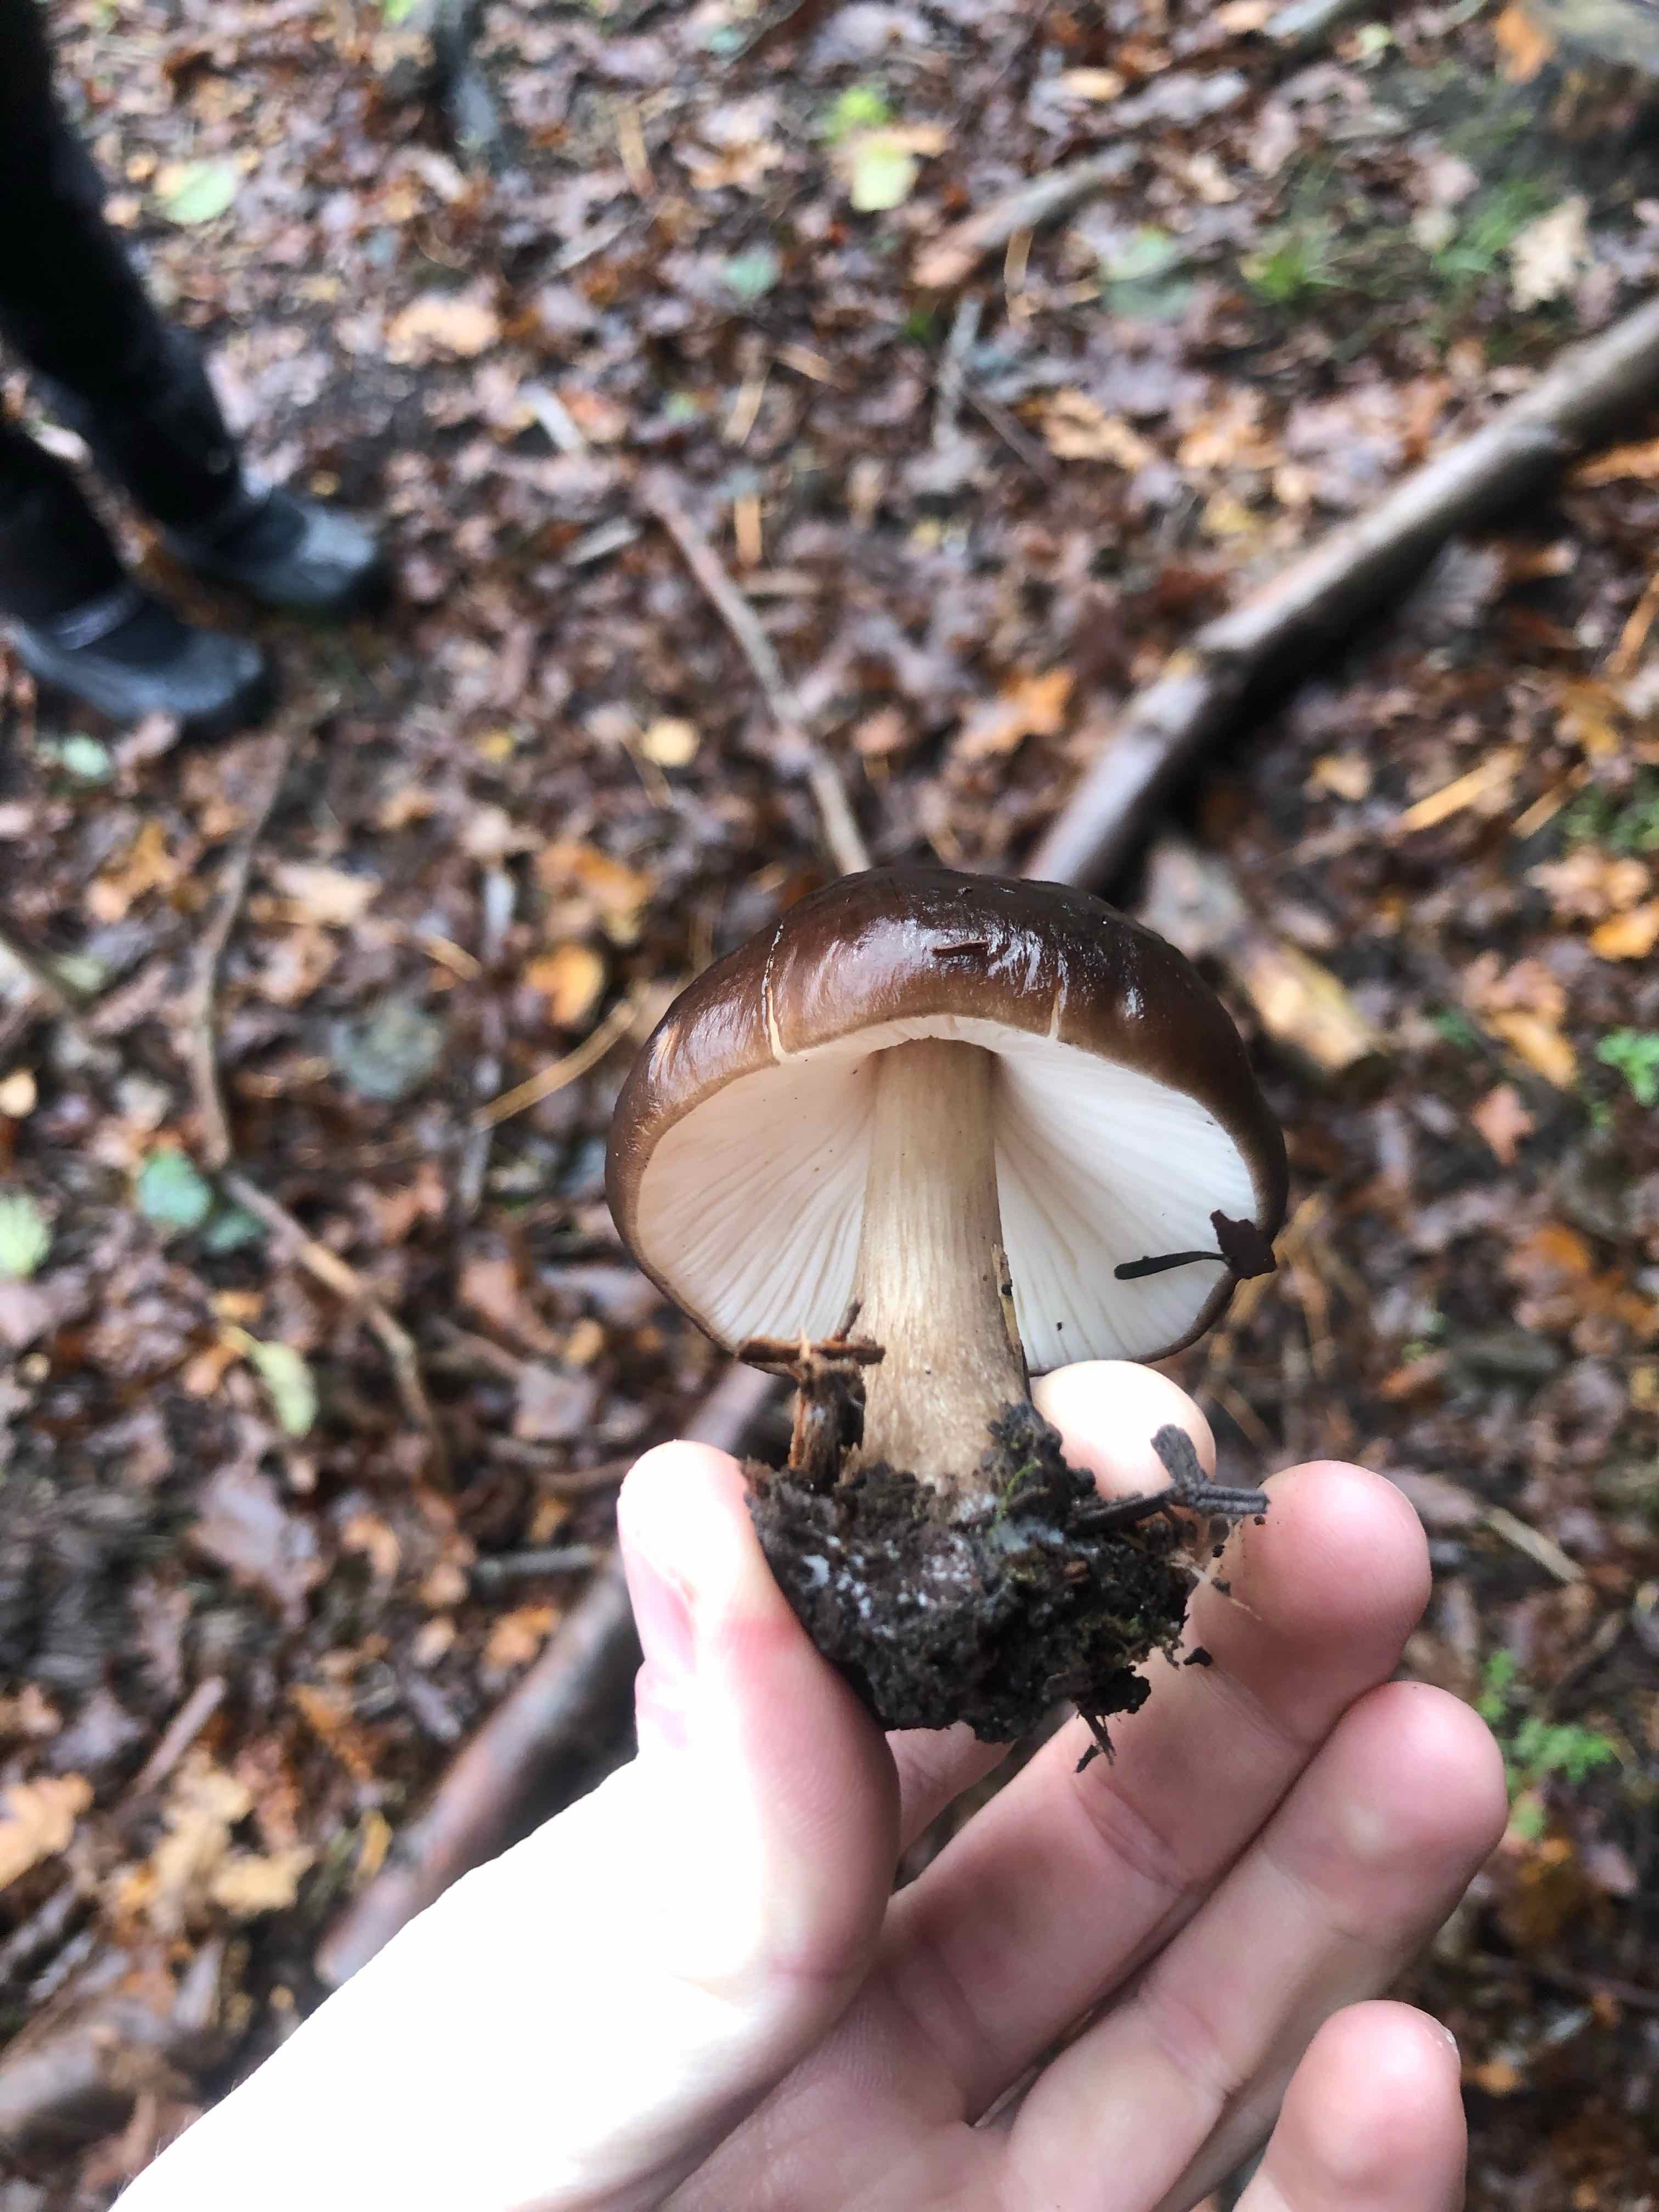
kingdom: Fungi
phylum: Basidiomycota
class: Agaricomycetes
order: Agaricales
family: Pluteaceae
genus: Pluteus
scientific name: Pluteus
